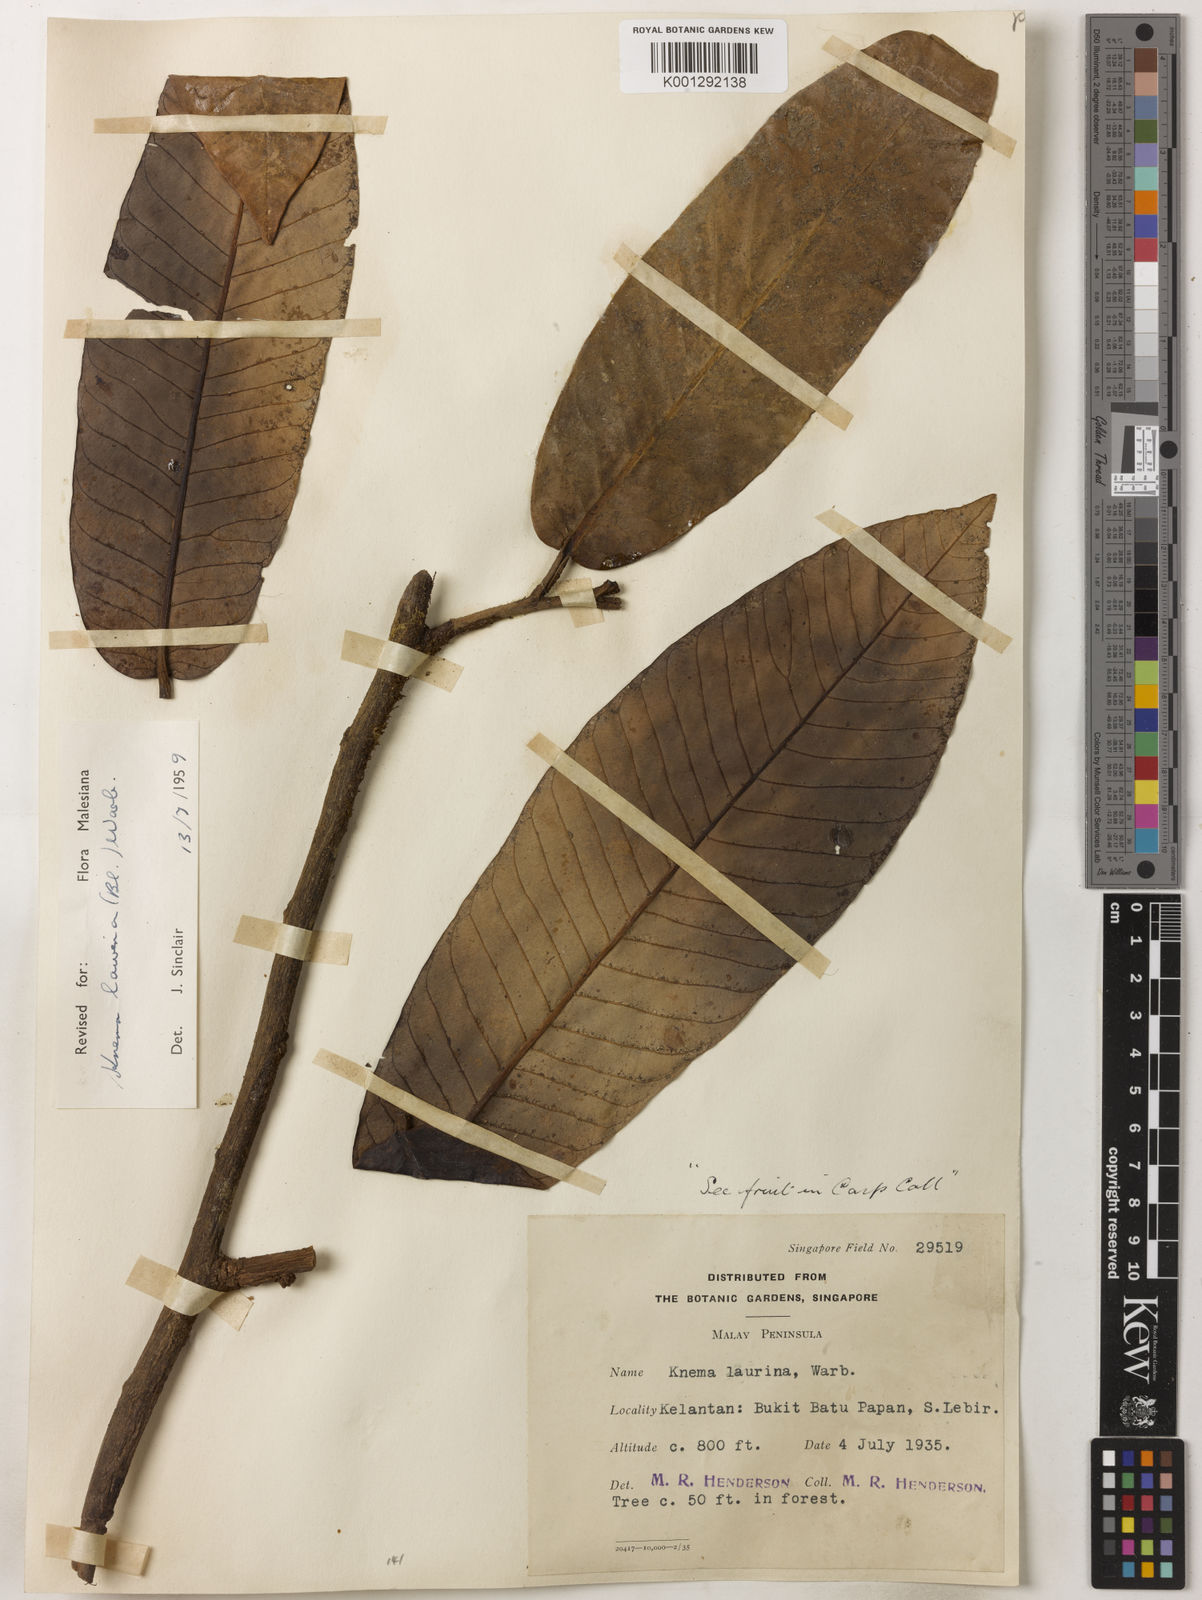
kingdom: Plantae
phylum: Tracheophyta
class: Magnoliopsida
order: Magnoliales
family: Myristicaceae
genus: Knema
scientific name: Knema laurina
